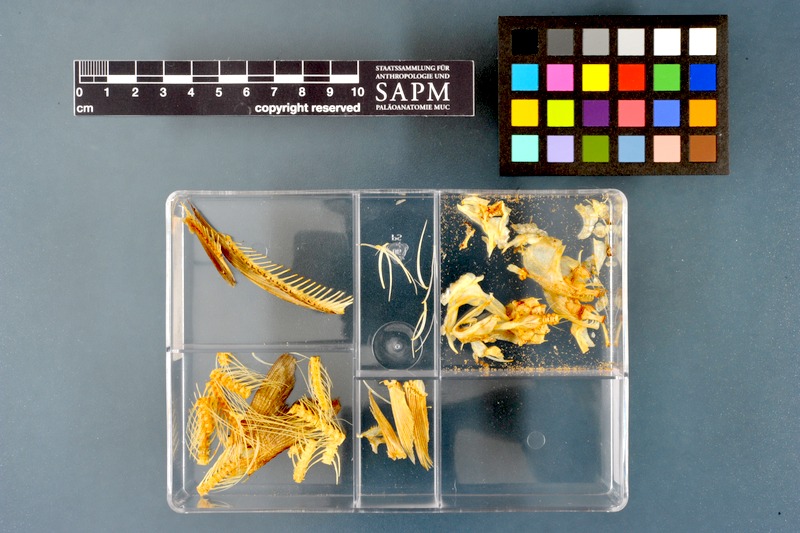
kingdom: Animalia
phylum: Chordata
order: Salmoniformes
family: Salmonidae
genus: Thymallus
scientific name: Thymallus thymallus
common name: Grayling
